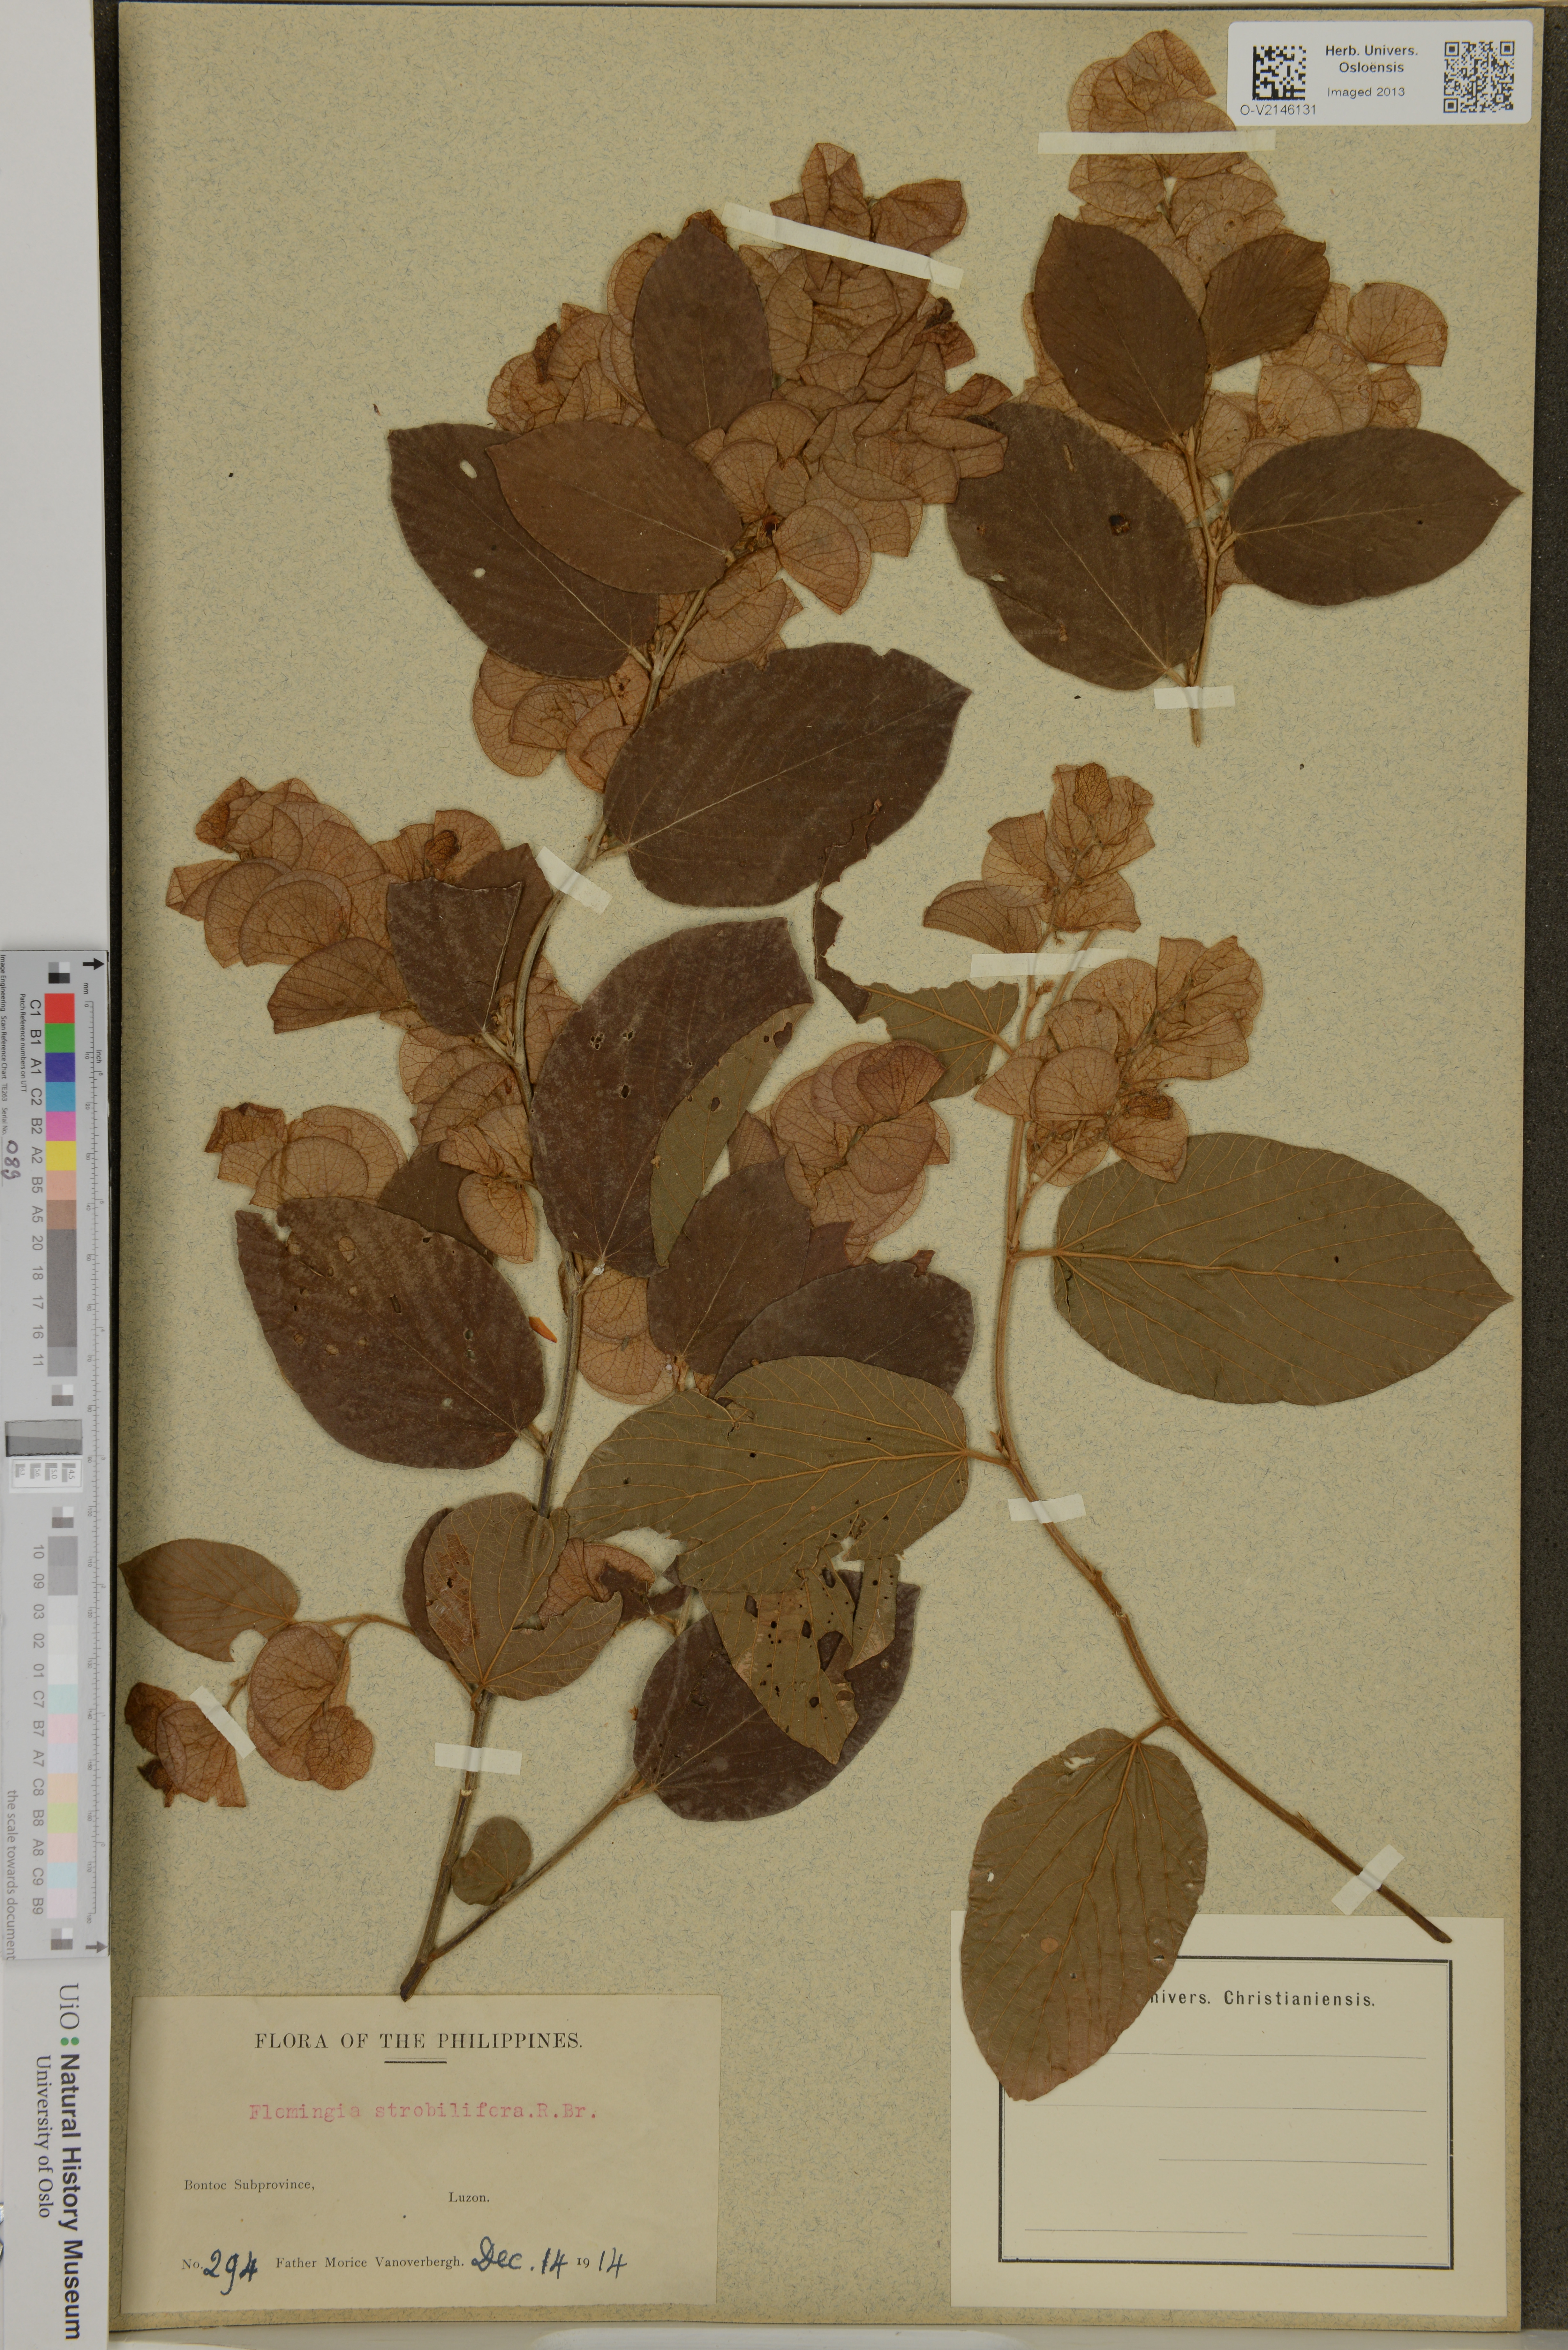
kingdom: Plantae
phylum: Tracheophyta
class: Magnoliopsida
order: Fabales
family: Fabaceae
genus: Flemingia
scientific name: Flemingia strobilifera
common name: Wild hops
